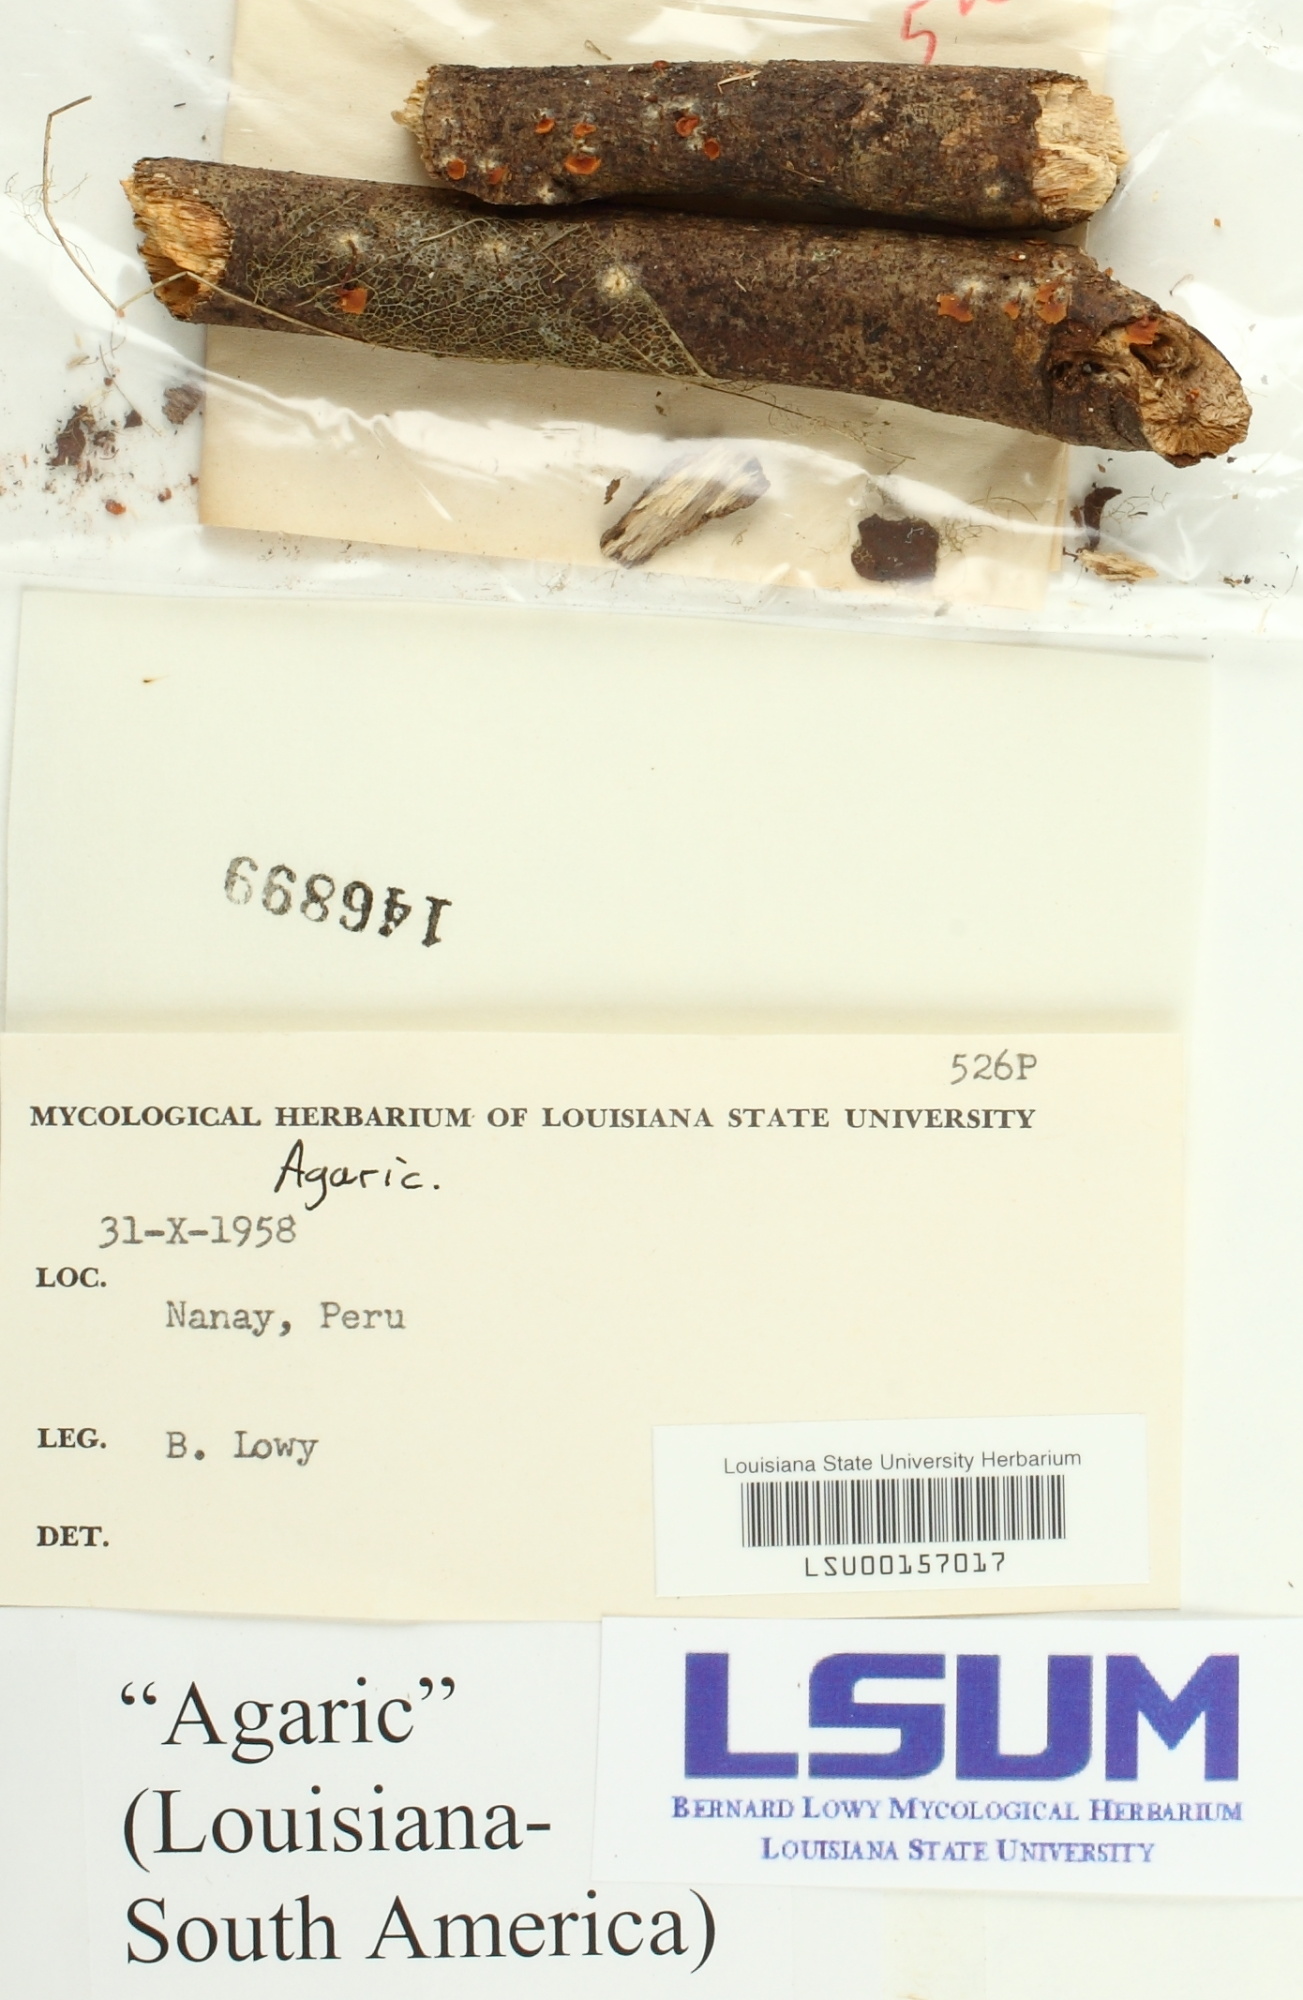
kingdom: Fungi
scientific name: Fungi
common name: Fungi
